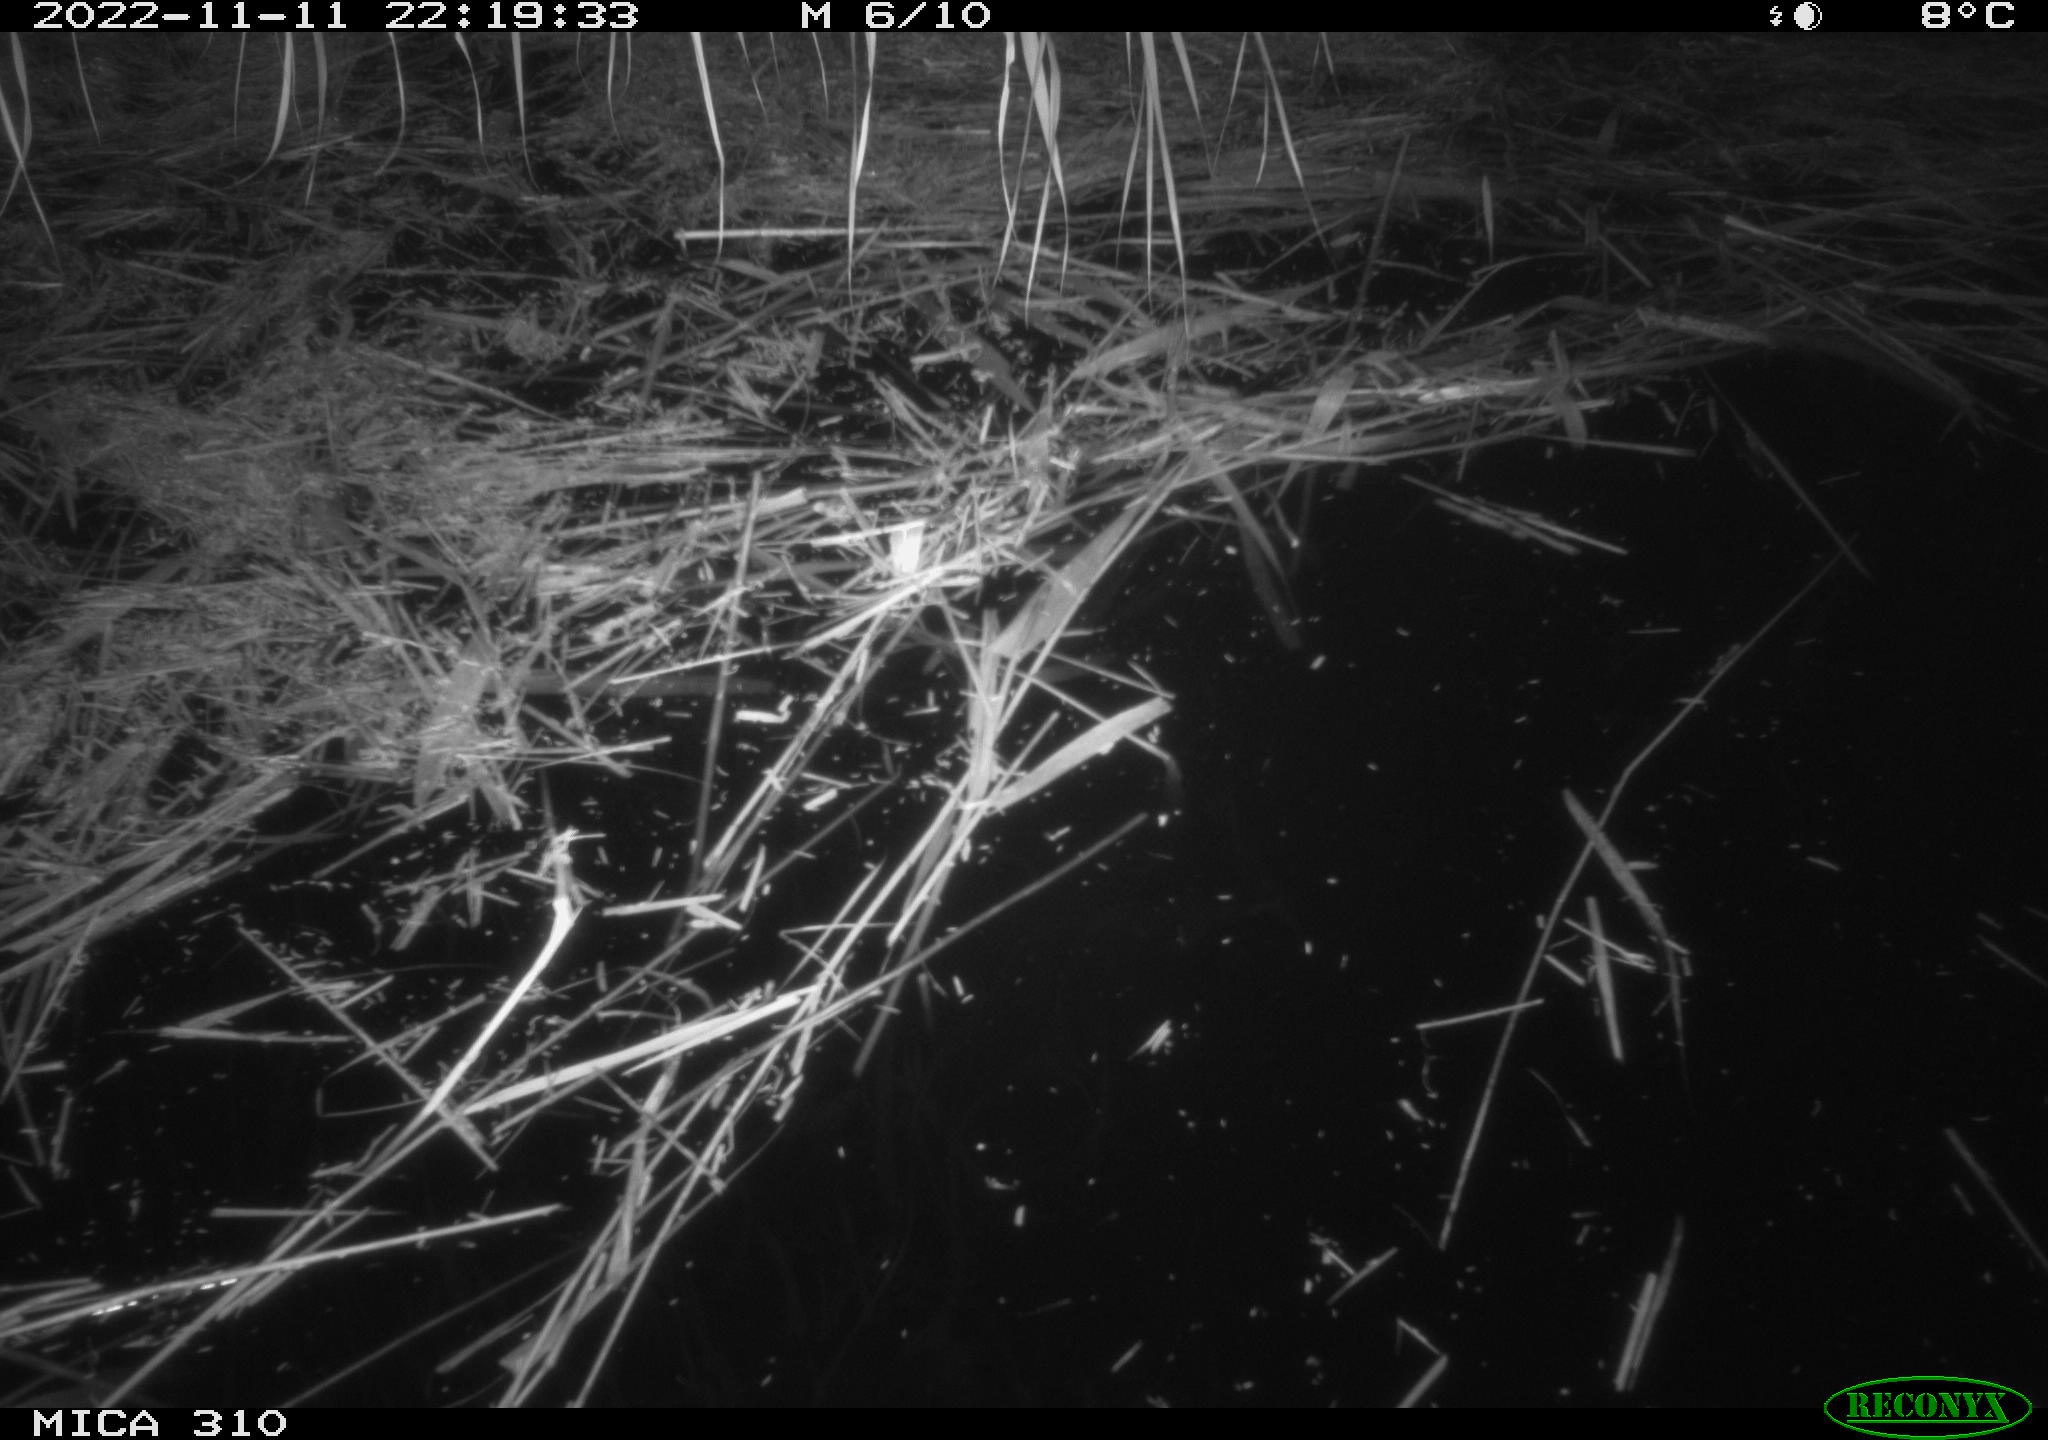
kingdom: Animalia
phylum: Chordata
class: Mammalia
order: Rodentia
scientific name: Rodentia
